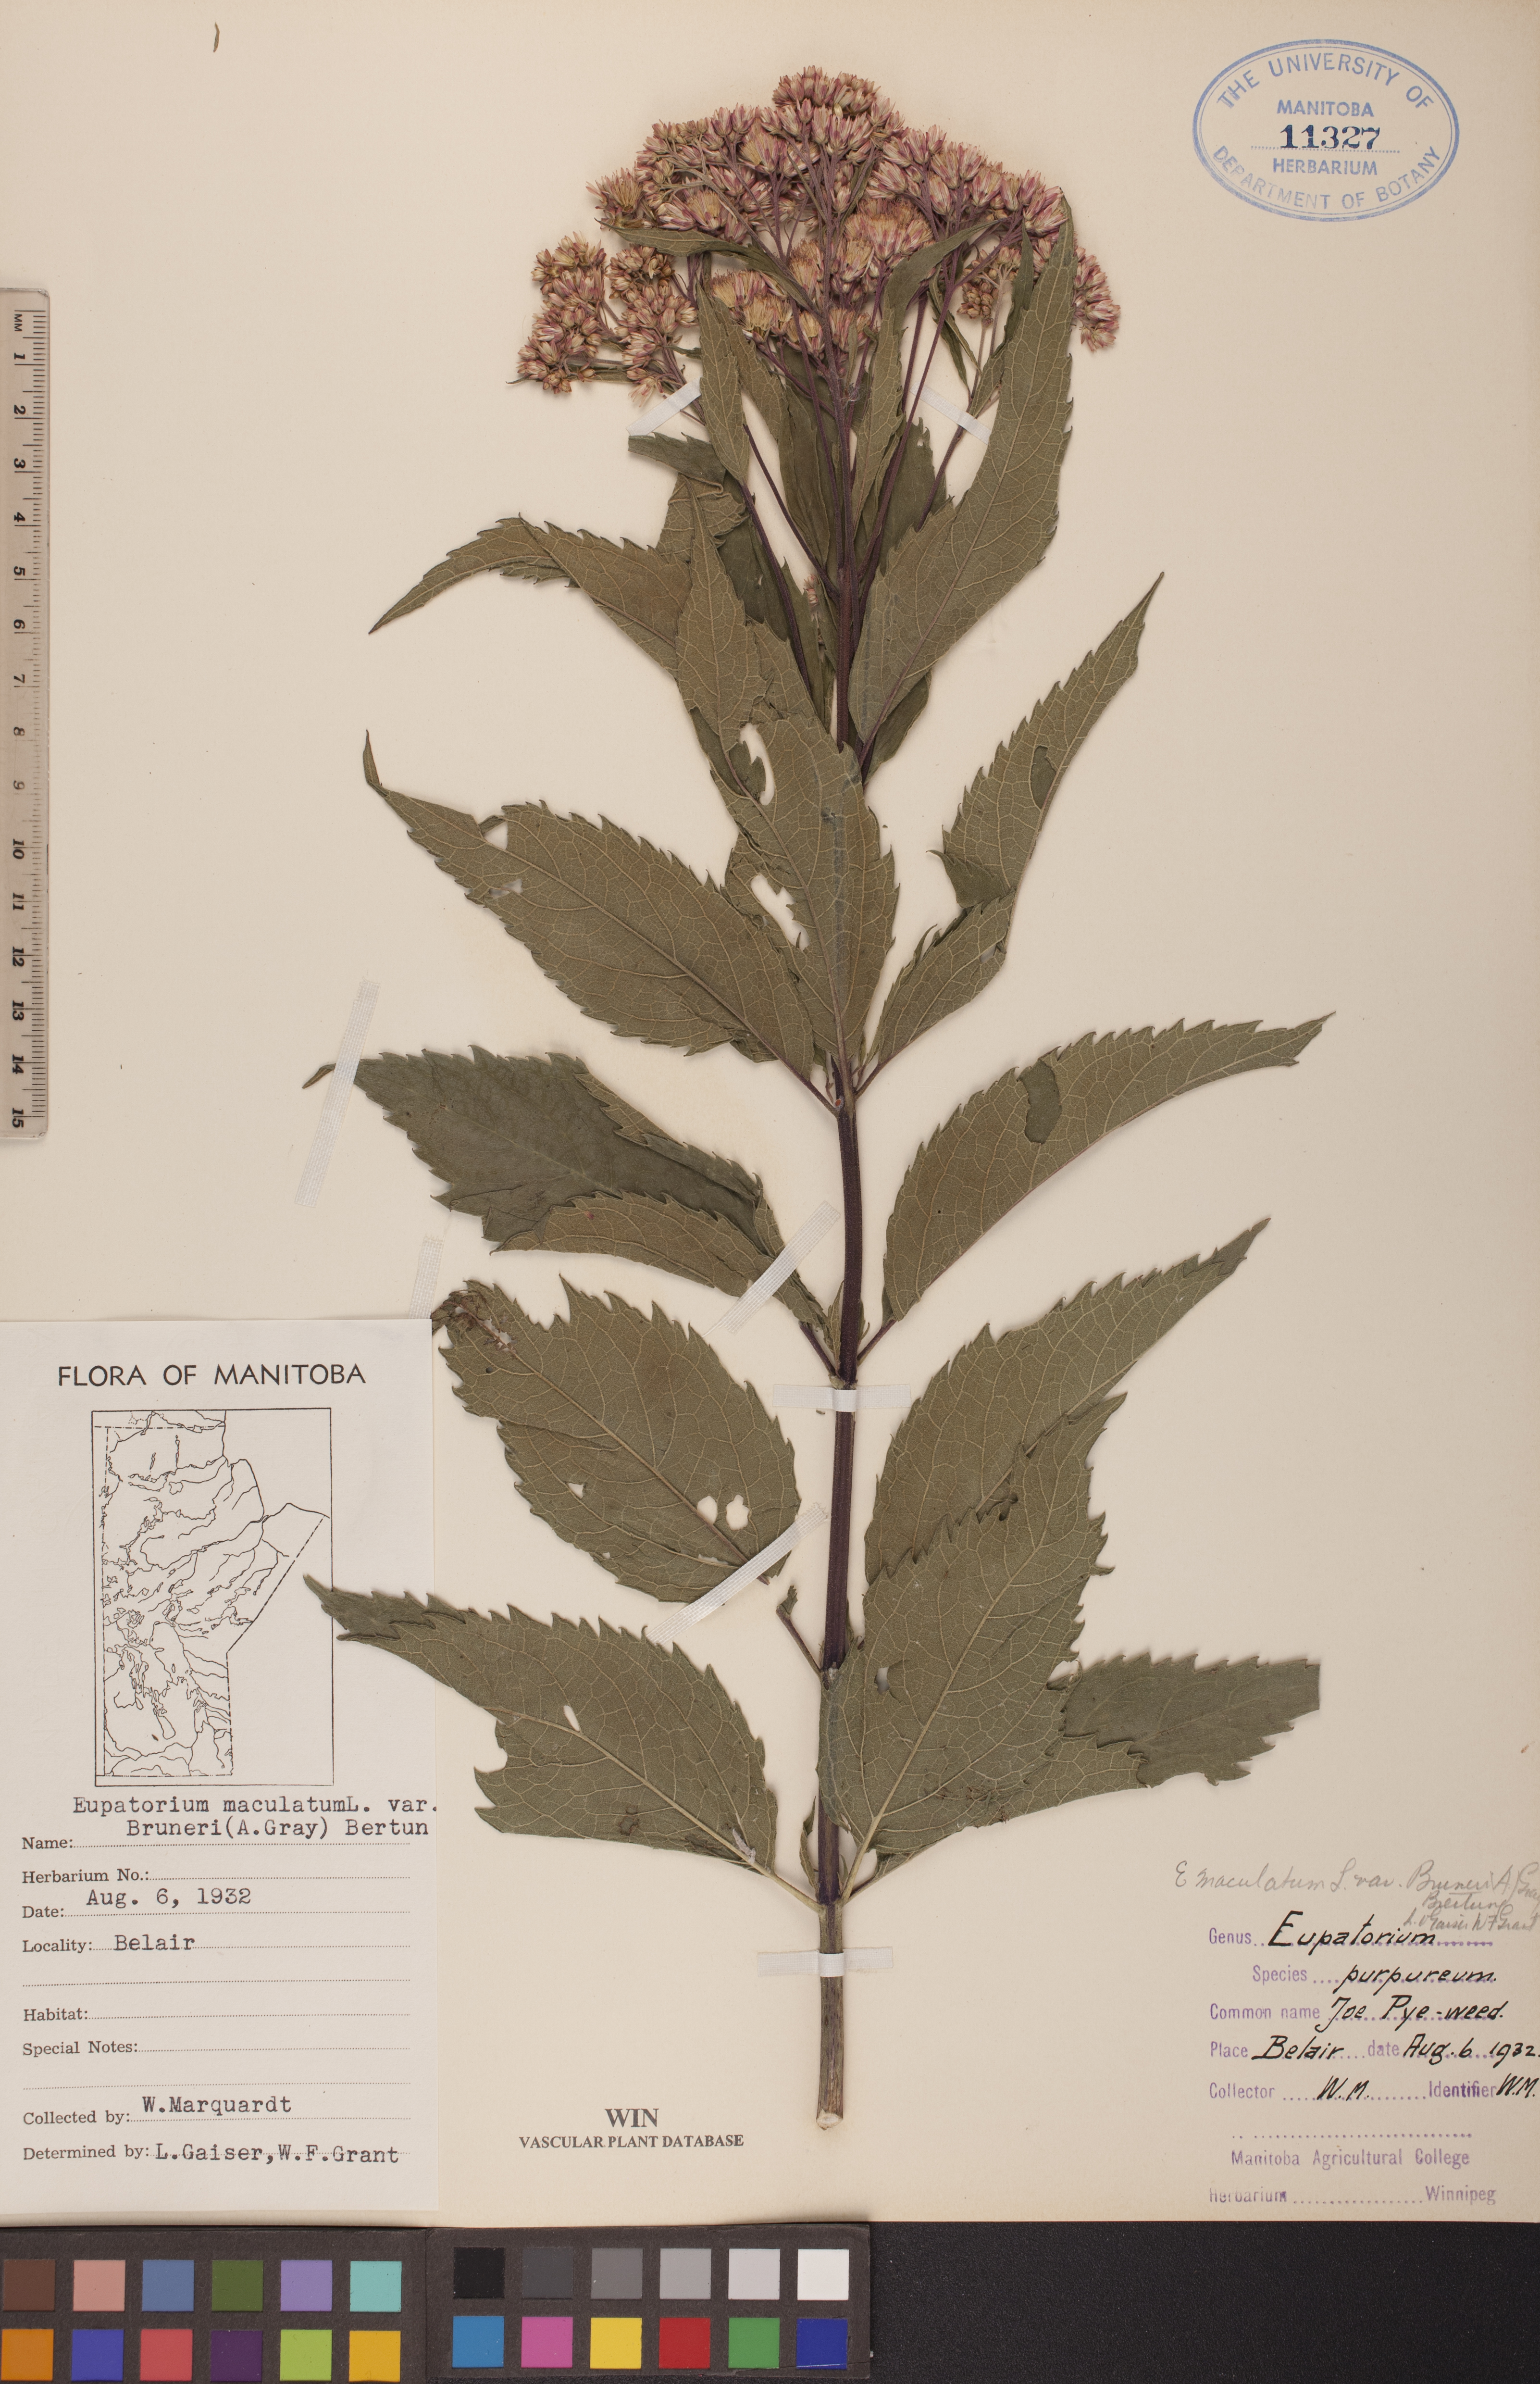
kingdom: Plantae
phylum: Tracheophyta
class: Magnoliopsida
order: Asterales
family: Asteraceae
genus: Eutrochium
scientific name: Eutrochium maculatum
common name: Spotted joe pye weed
